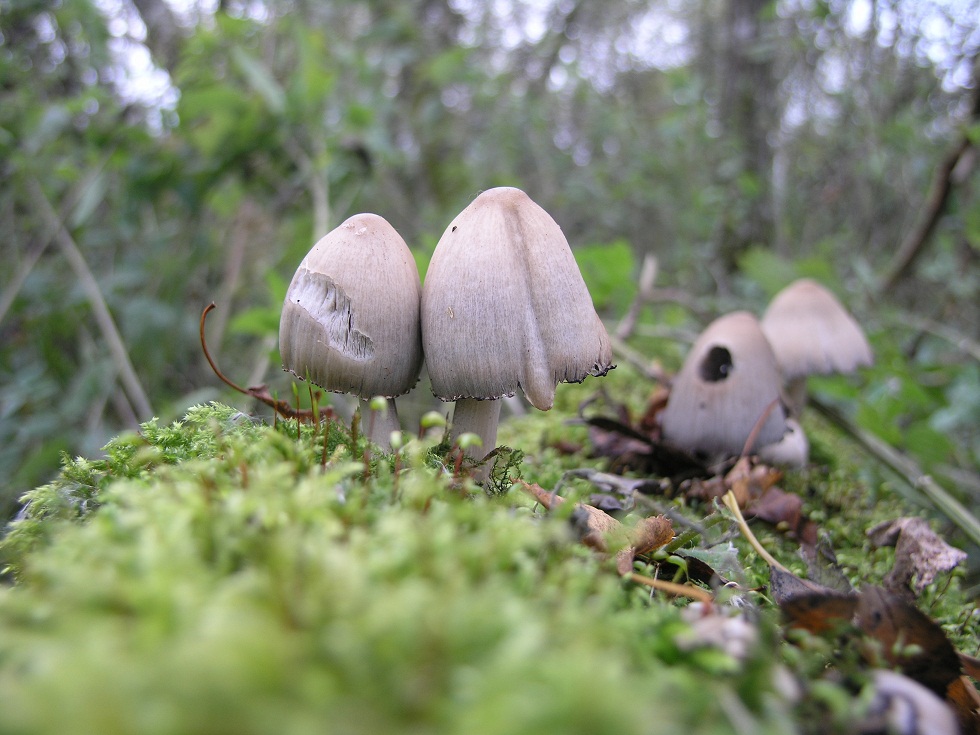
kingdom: Fungi
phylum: Basidiomycota
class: Agaricomycetes
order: Agaricales
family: Psathyrellaceae
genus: Coprinopsis
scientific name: Coprinopsis acuminata
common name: kegle-blækhat
